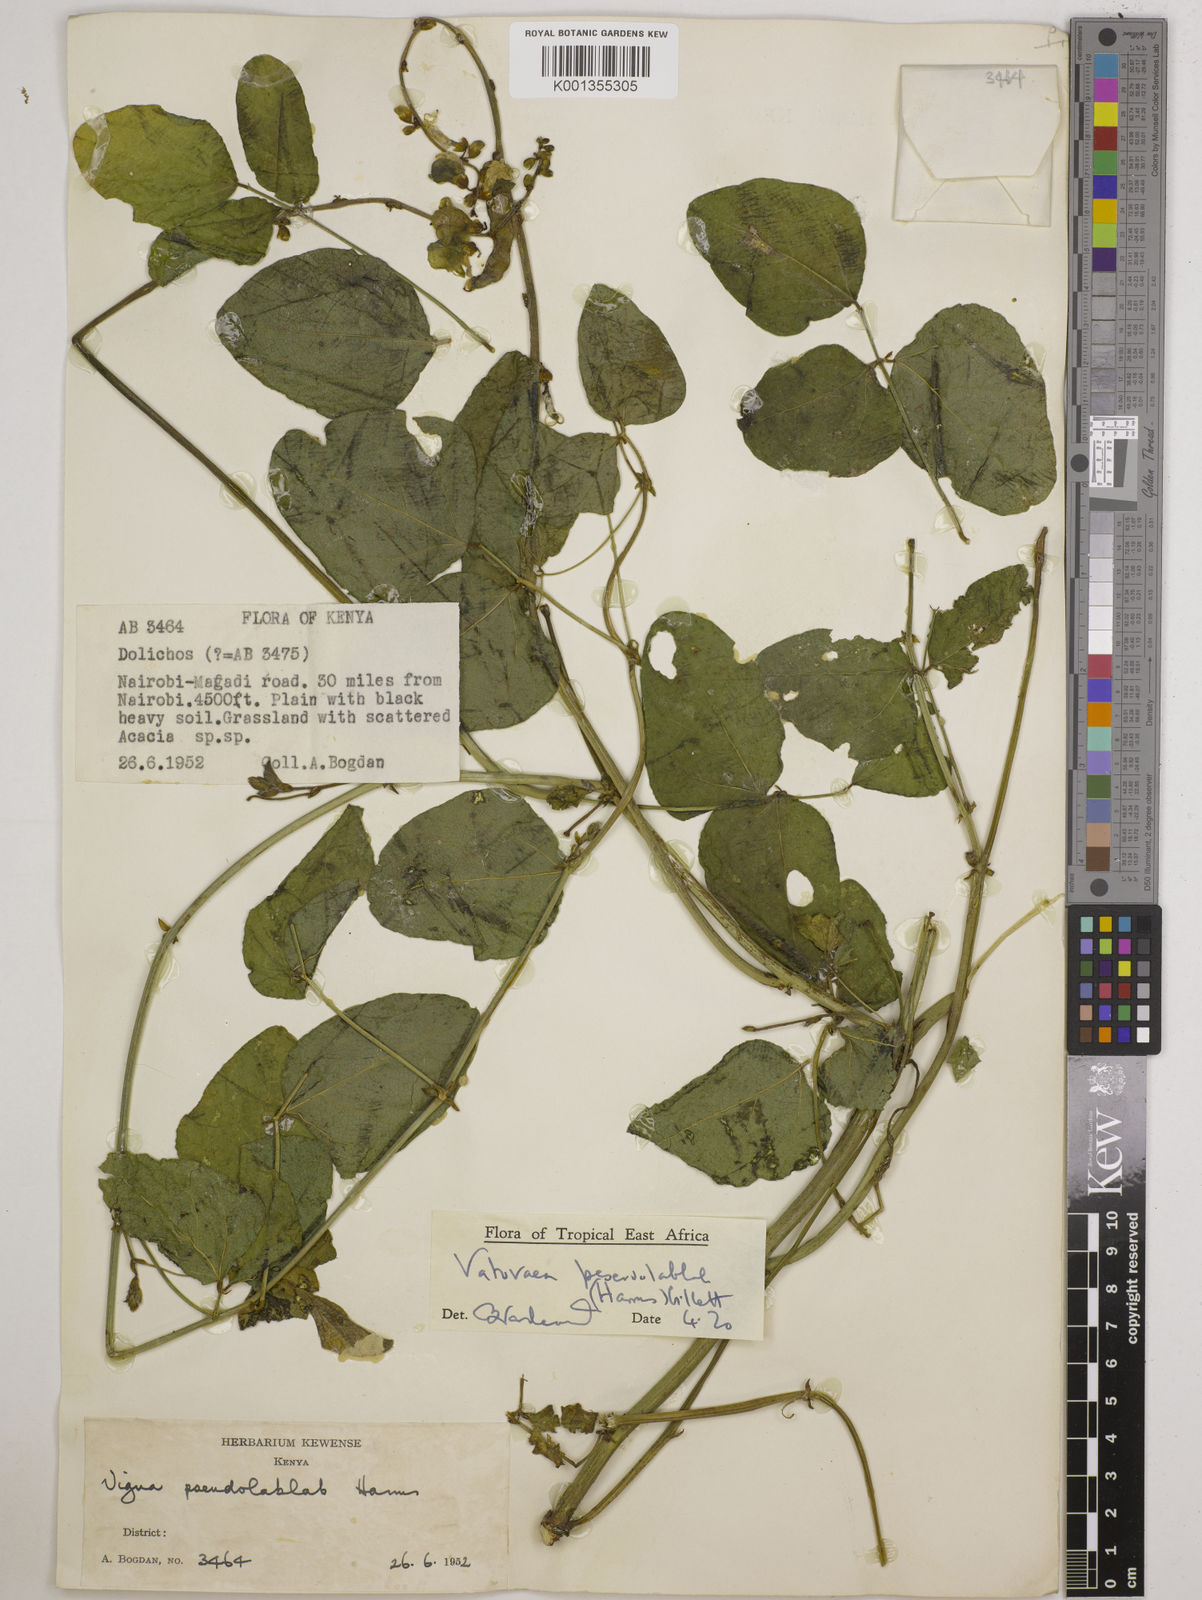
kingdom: Plantae
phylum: Tracheophyta
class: Magnoliopsida
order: Fabales
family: Fabaceae
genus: Vatovaea
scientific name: Vatovaea pseudolablab
